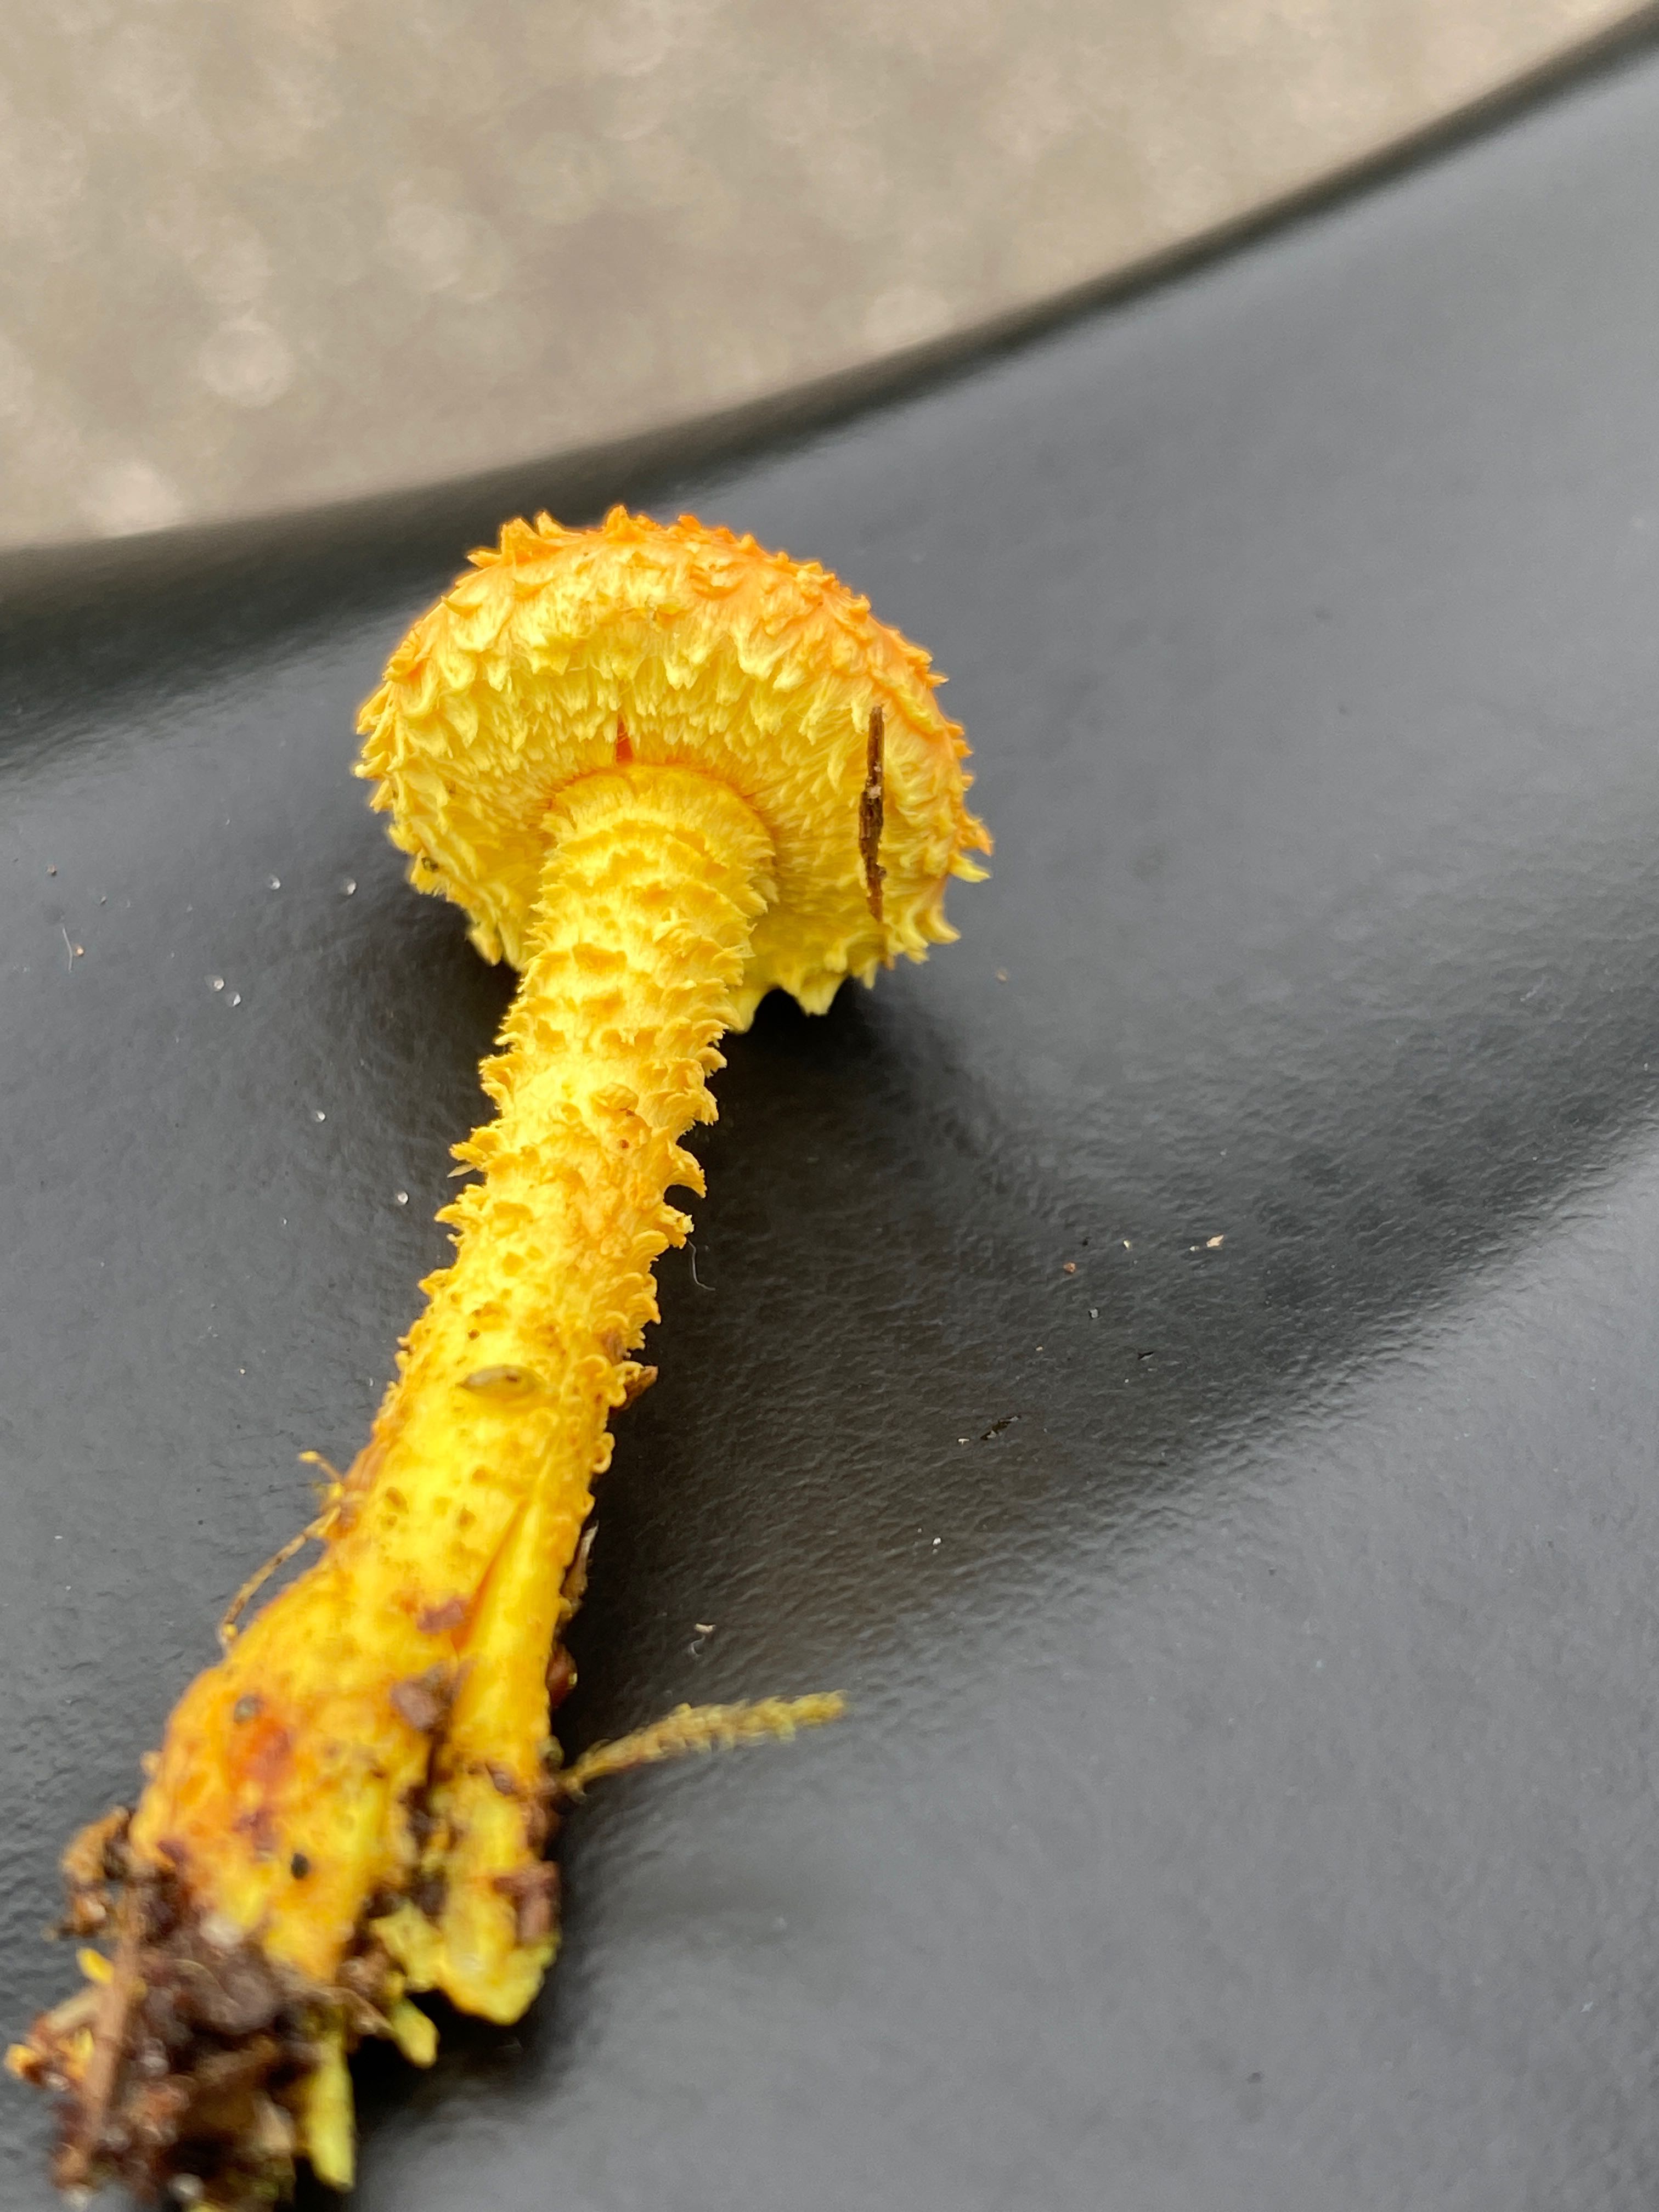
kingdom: Fungi
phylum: Basidiomycota
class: Agaricomycetes
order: Agaricales
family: Strophariaceae
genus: Pholiota
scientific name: Pholiota flammans
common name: flamme-skælhat
